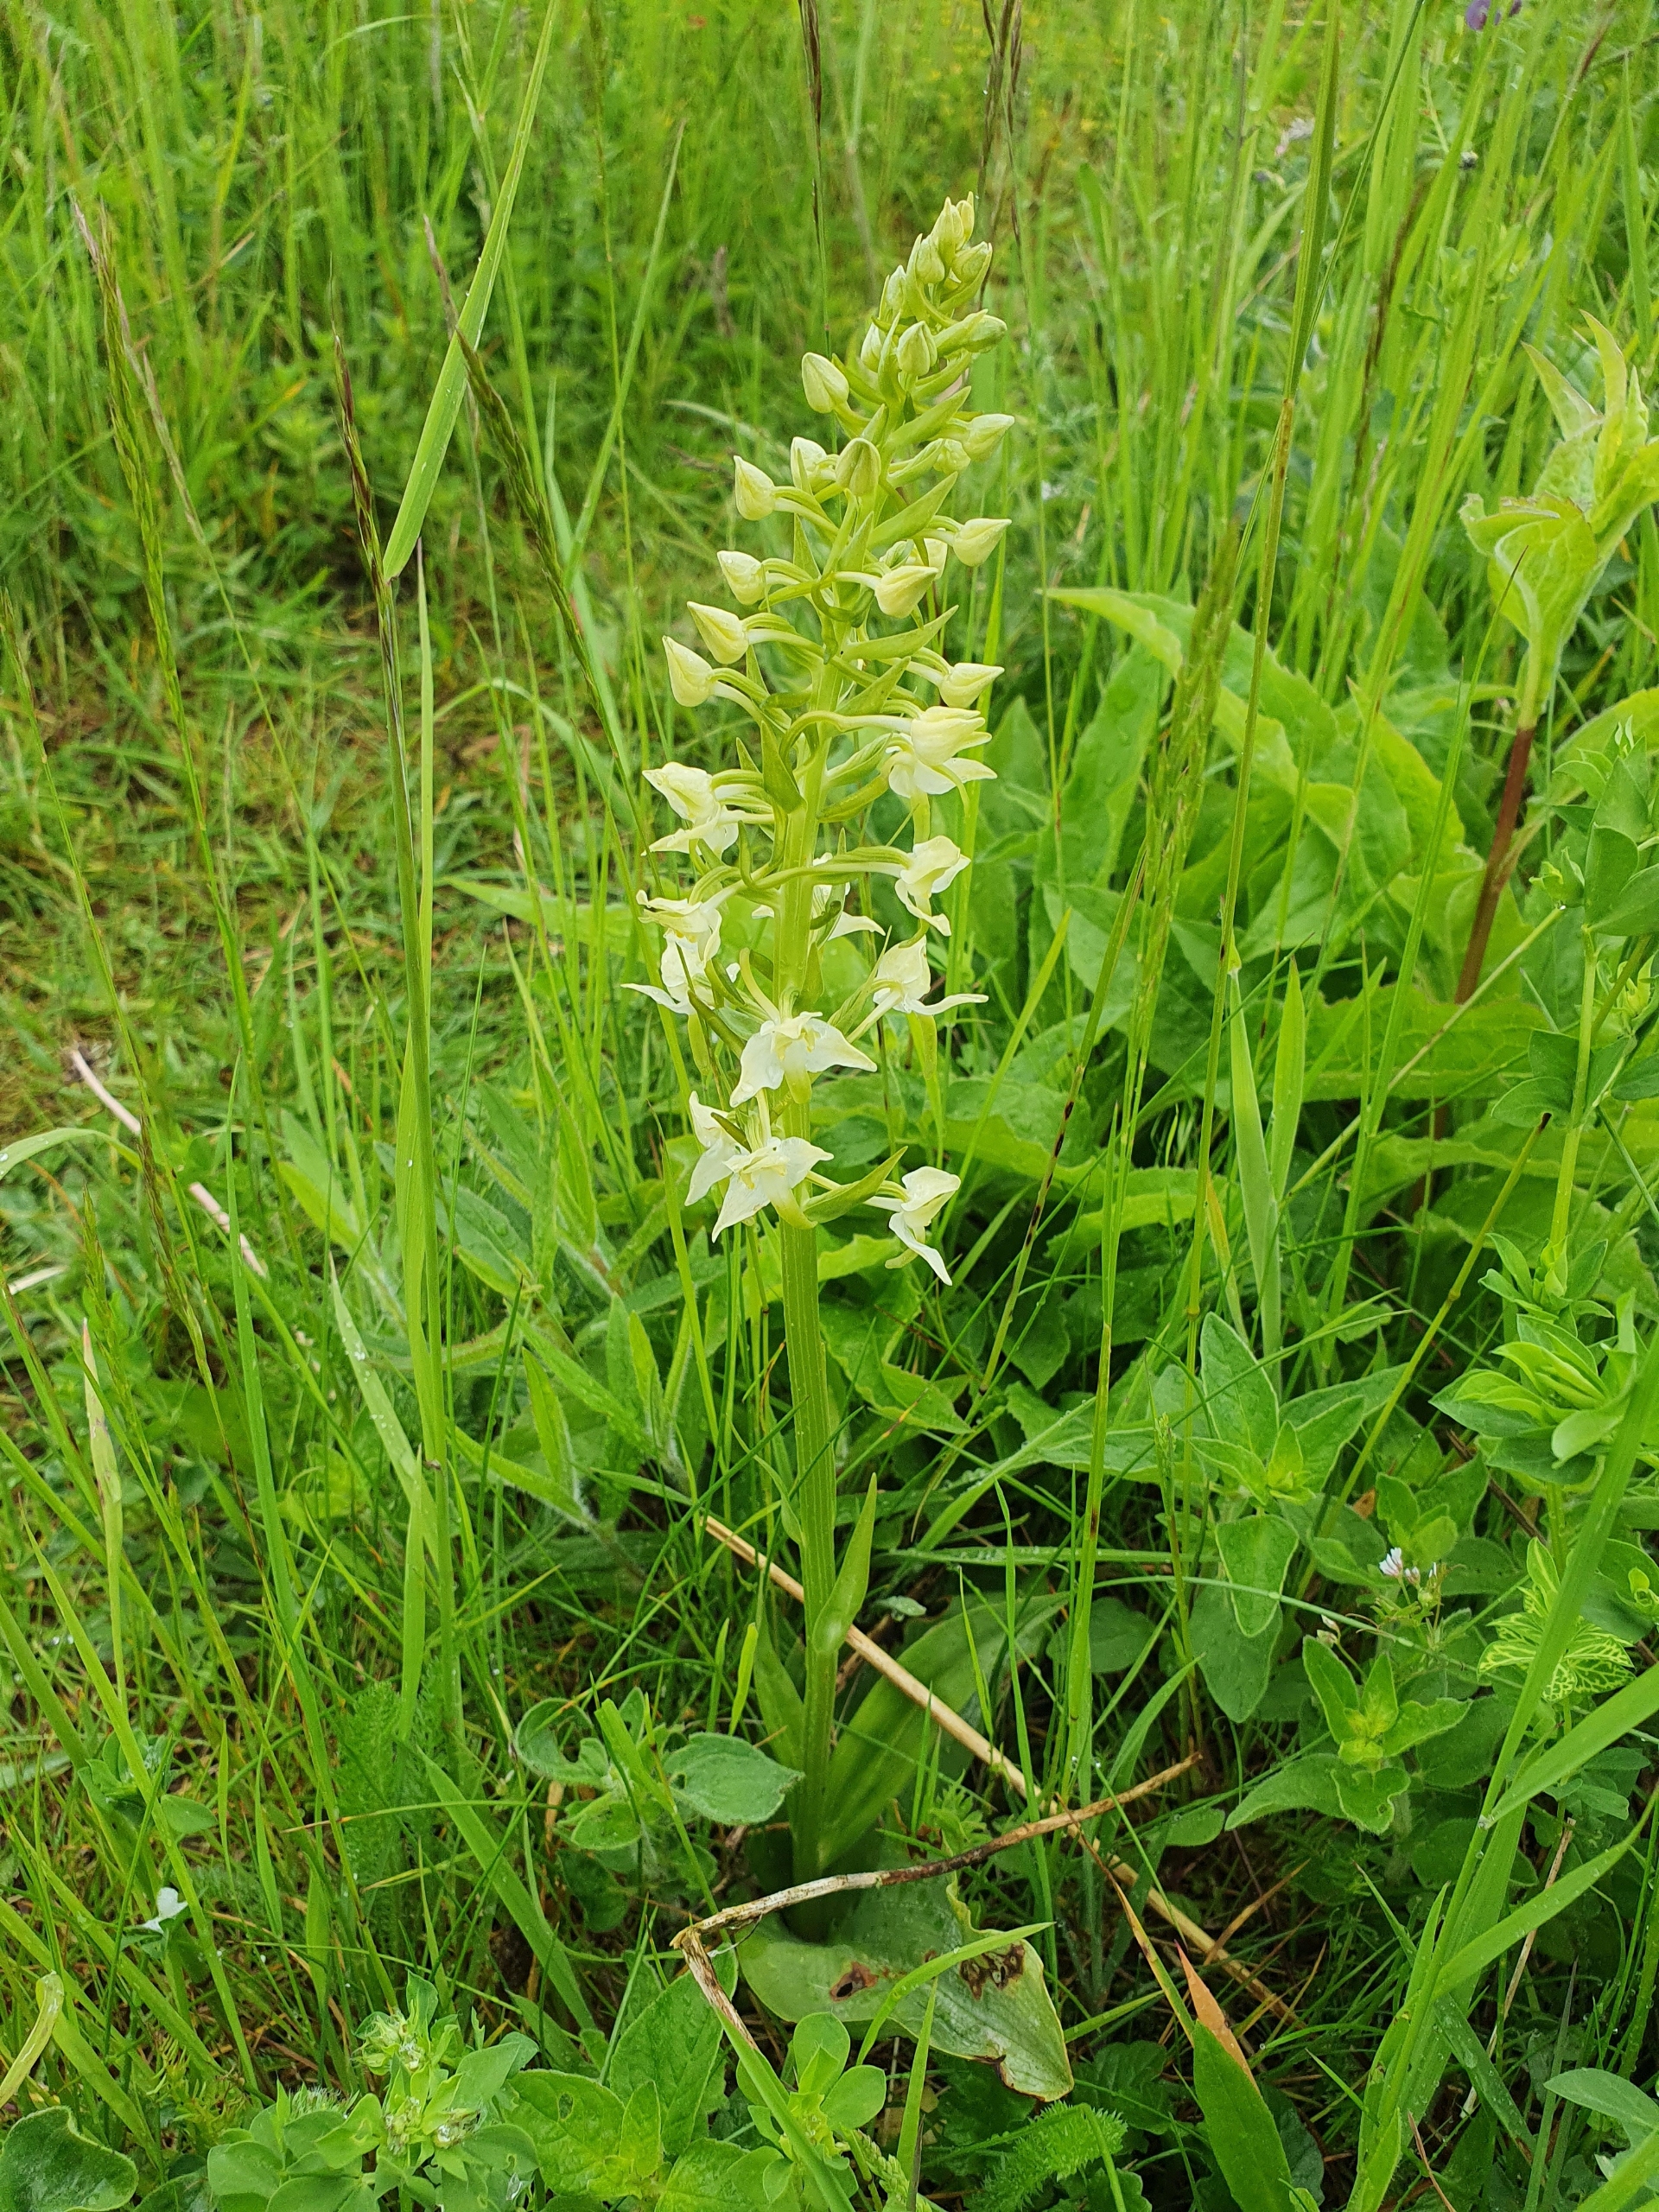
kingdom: Plantae
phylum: Tracheophyta
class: Liliopsida
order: Asparagales
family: Orchidaceae
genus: Platanthera
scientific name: Platanthera chlorantha
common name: Skov-gøgelilje
